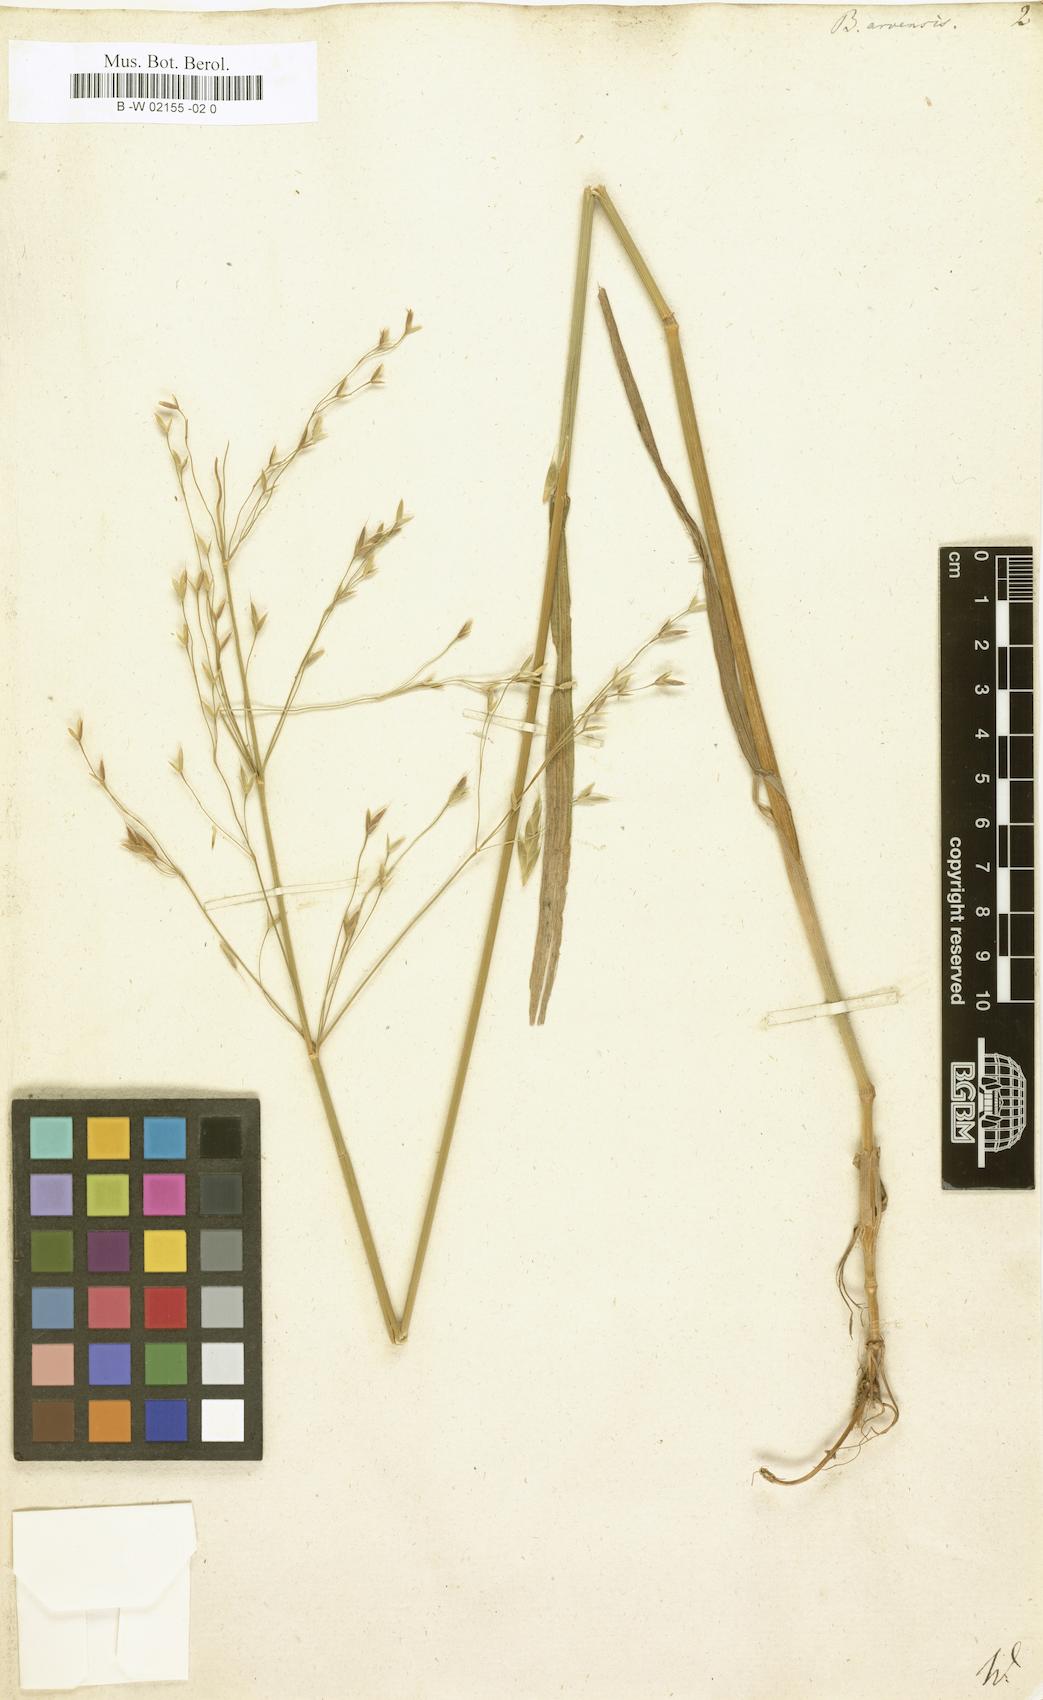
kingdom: Plantae
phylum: Tracheophyta
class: Liliopsida
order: Poales
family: Poaceae
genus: Bromus
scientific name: Bromus arvensis
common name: Field brome
